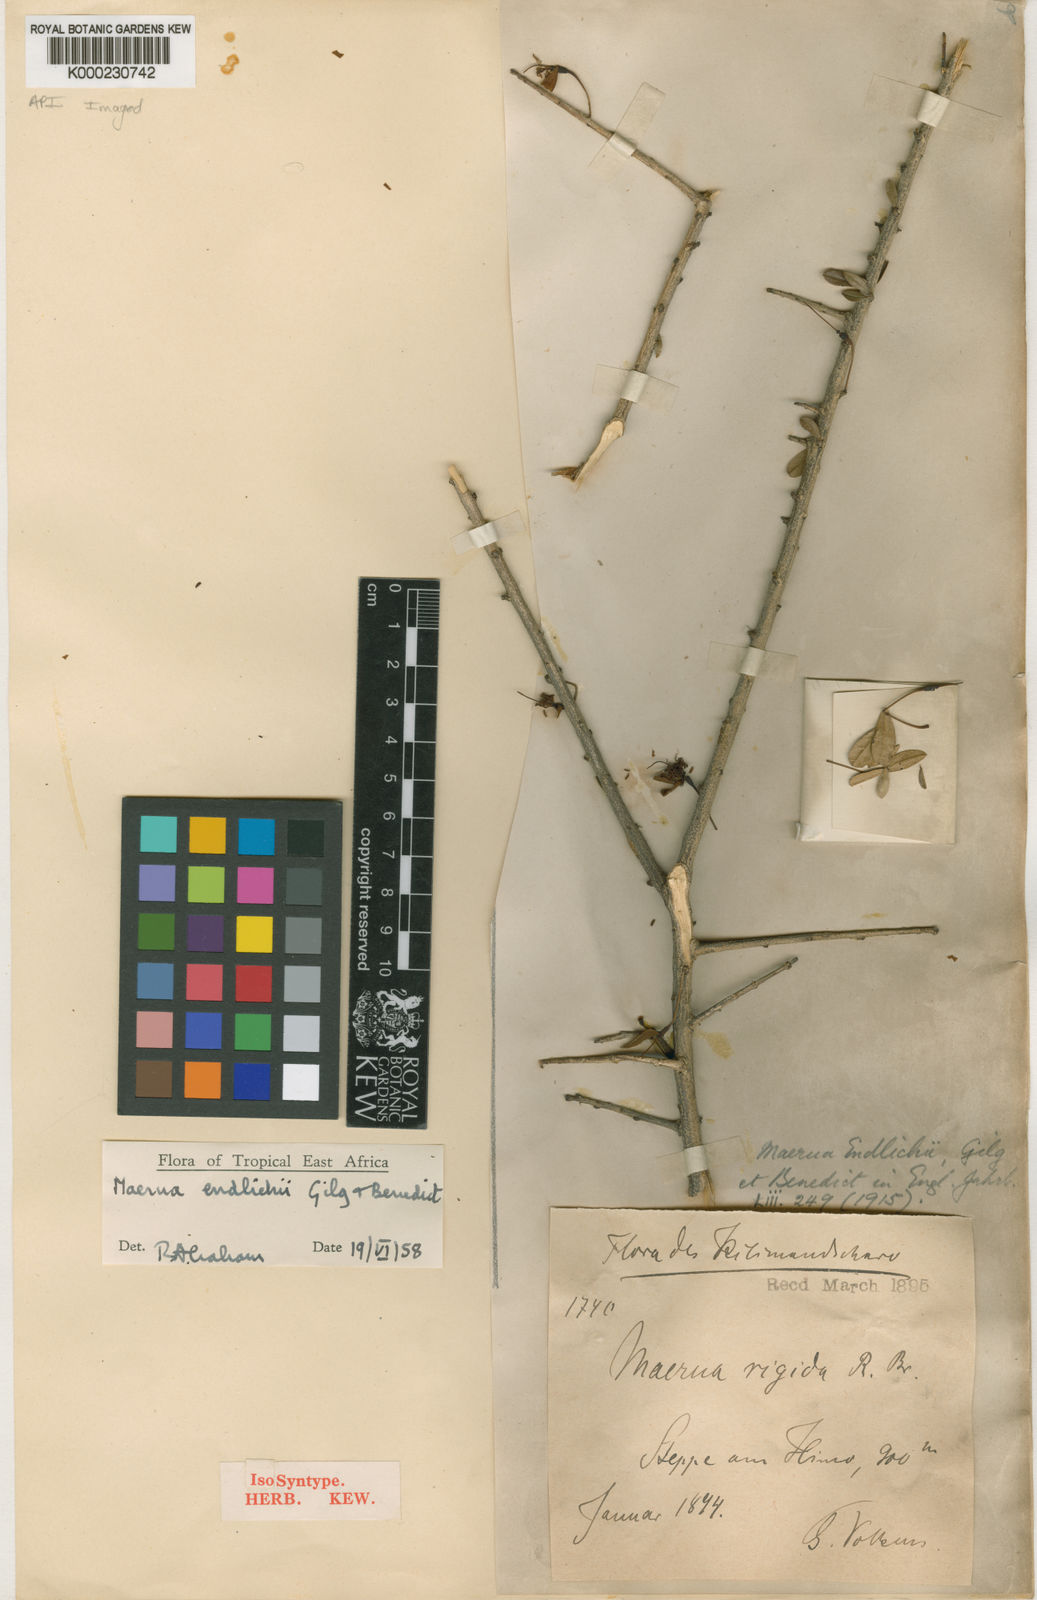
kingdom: Plantae
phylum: Tracheophyta
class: Magnoliopsida
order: Brassicales
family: Capparaceae
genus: Maerua
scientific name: Maerua endlichii
